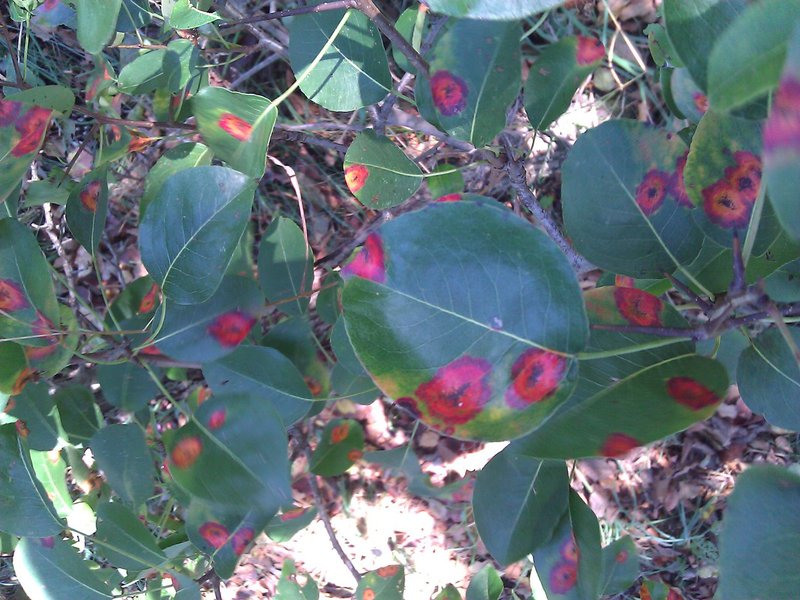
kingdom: Plantae
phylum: Tracheophyta
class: Magnoliopsida
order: Rosales
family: Rosaceae
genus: Pyrus
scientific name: Pyrus communis
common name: Pear
